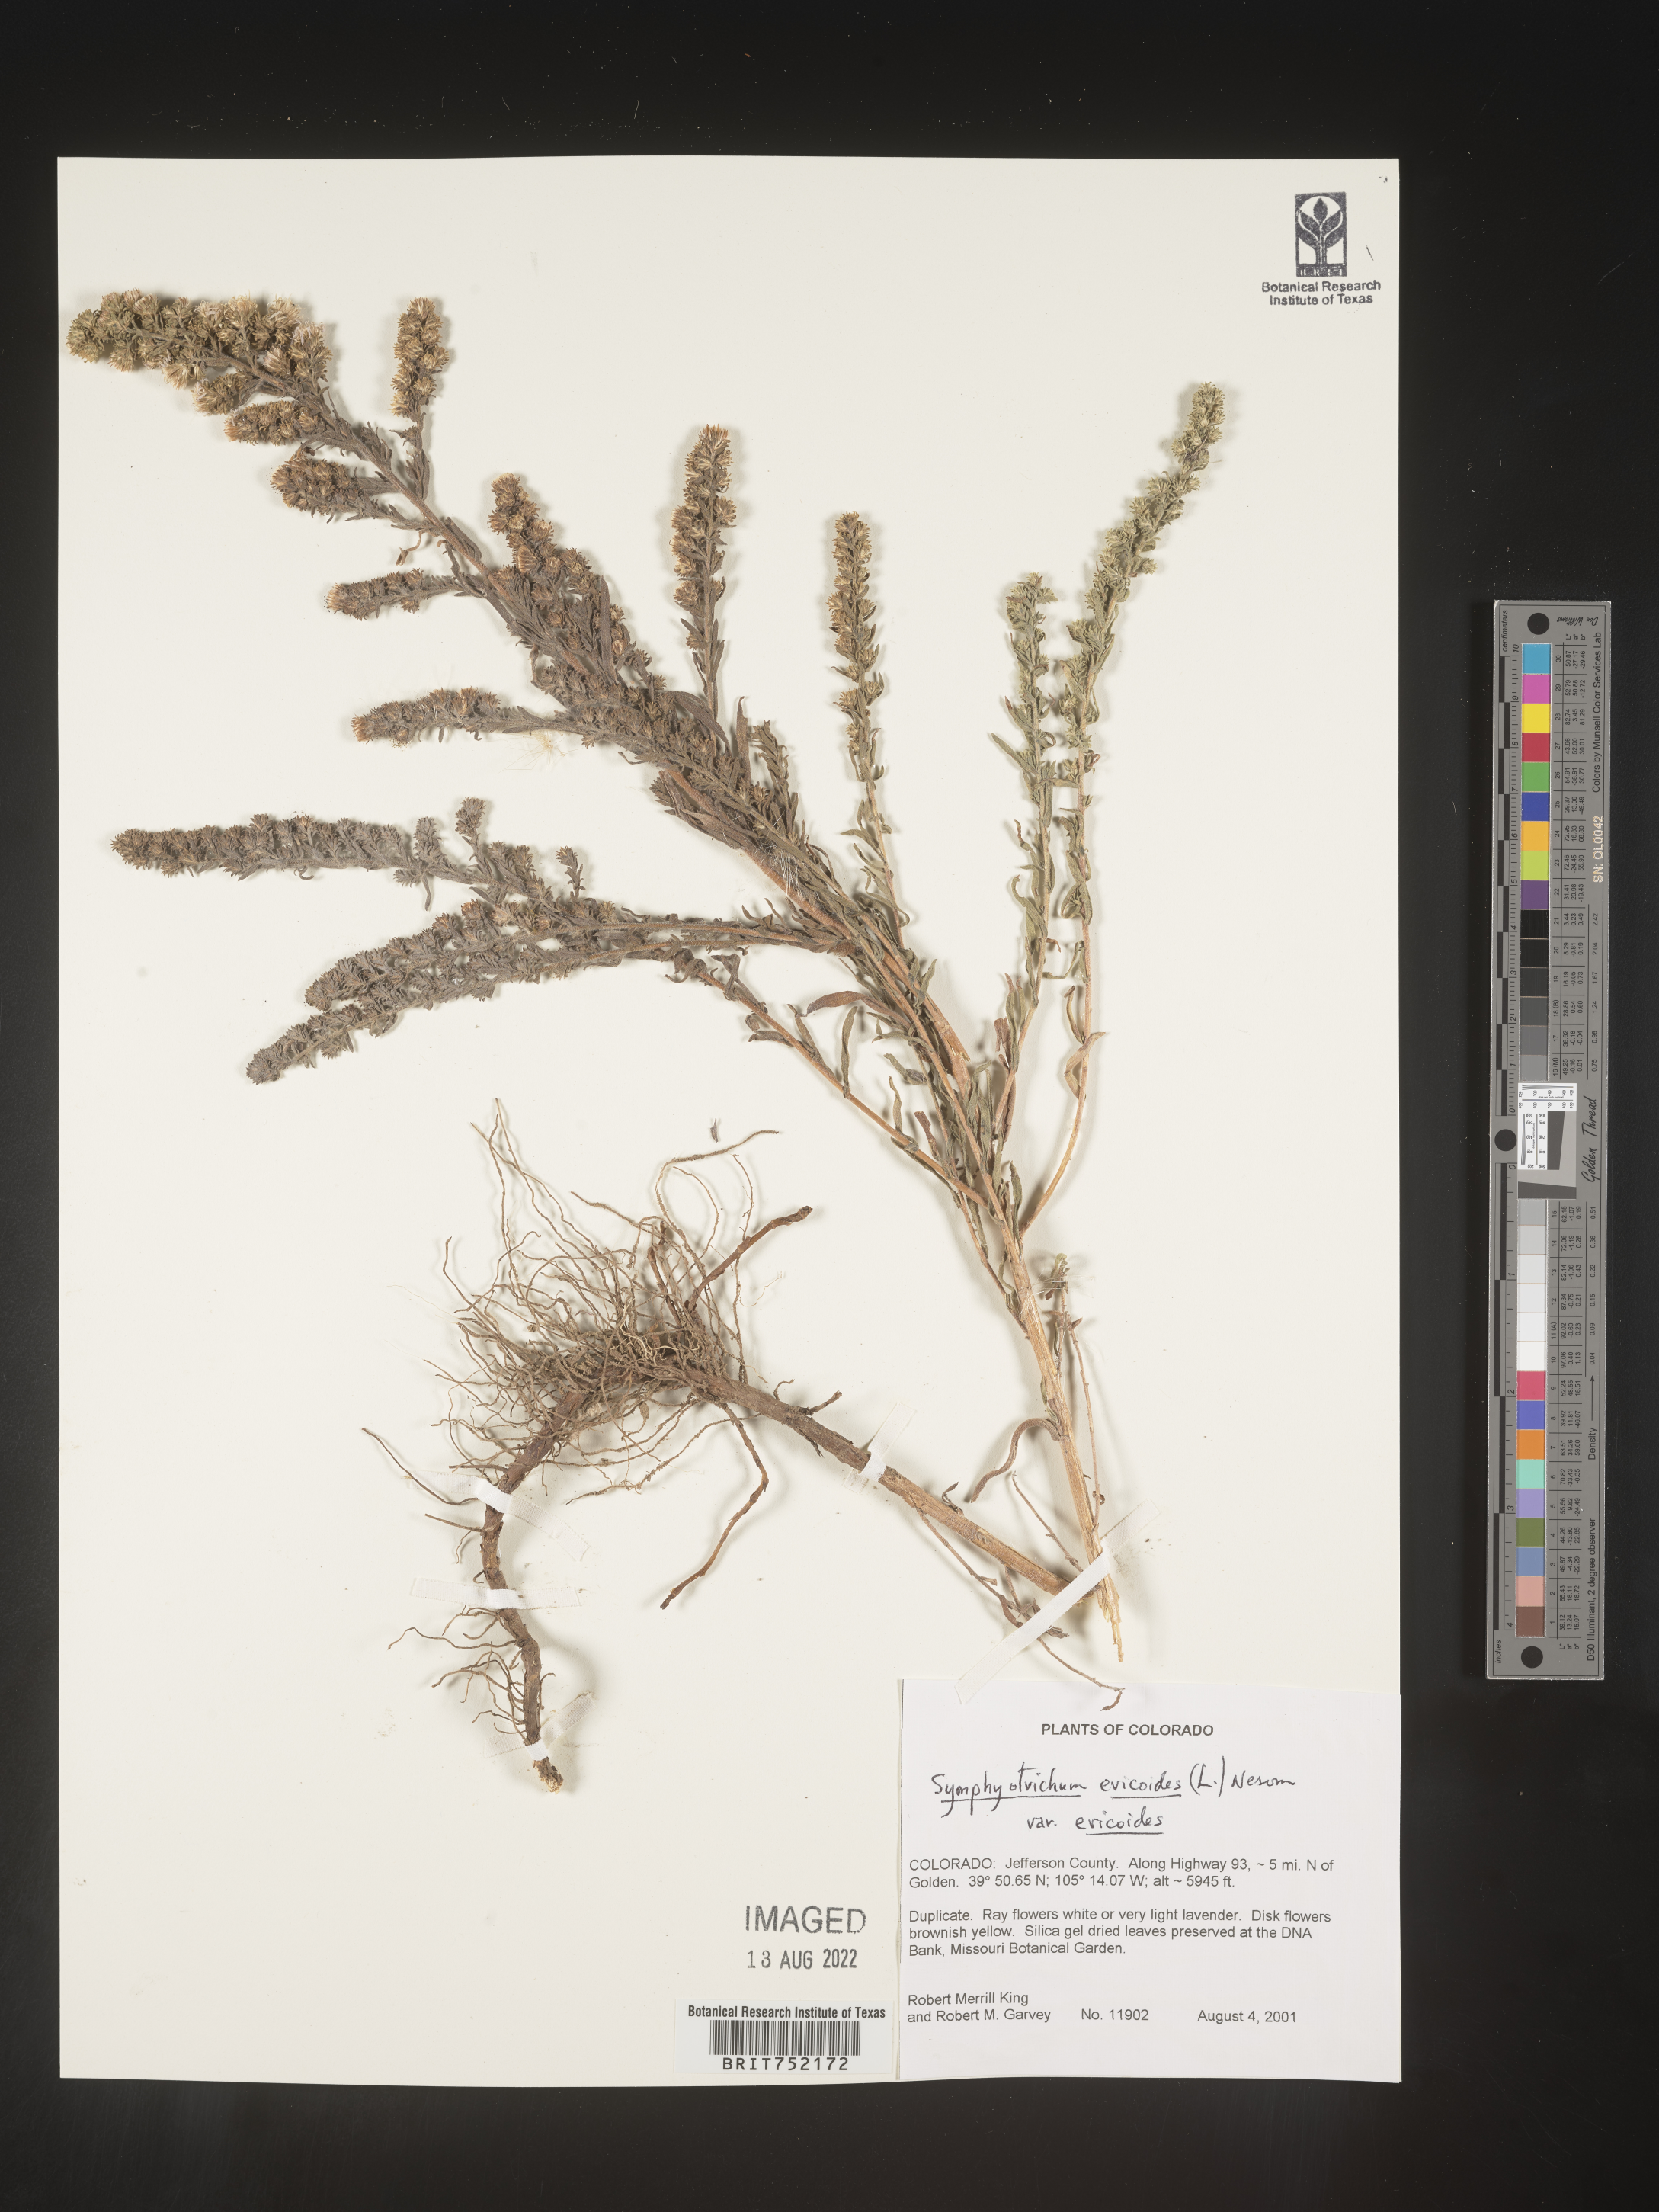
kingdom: Plantae
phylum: Tracheophyta
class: Magnoliopsida
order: Asterales
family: Asteraceae
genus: Symphyotrichum
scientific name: Symphyotrichum ericoides
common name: Heath aster
